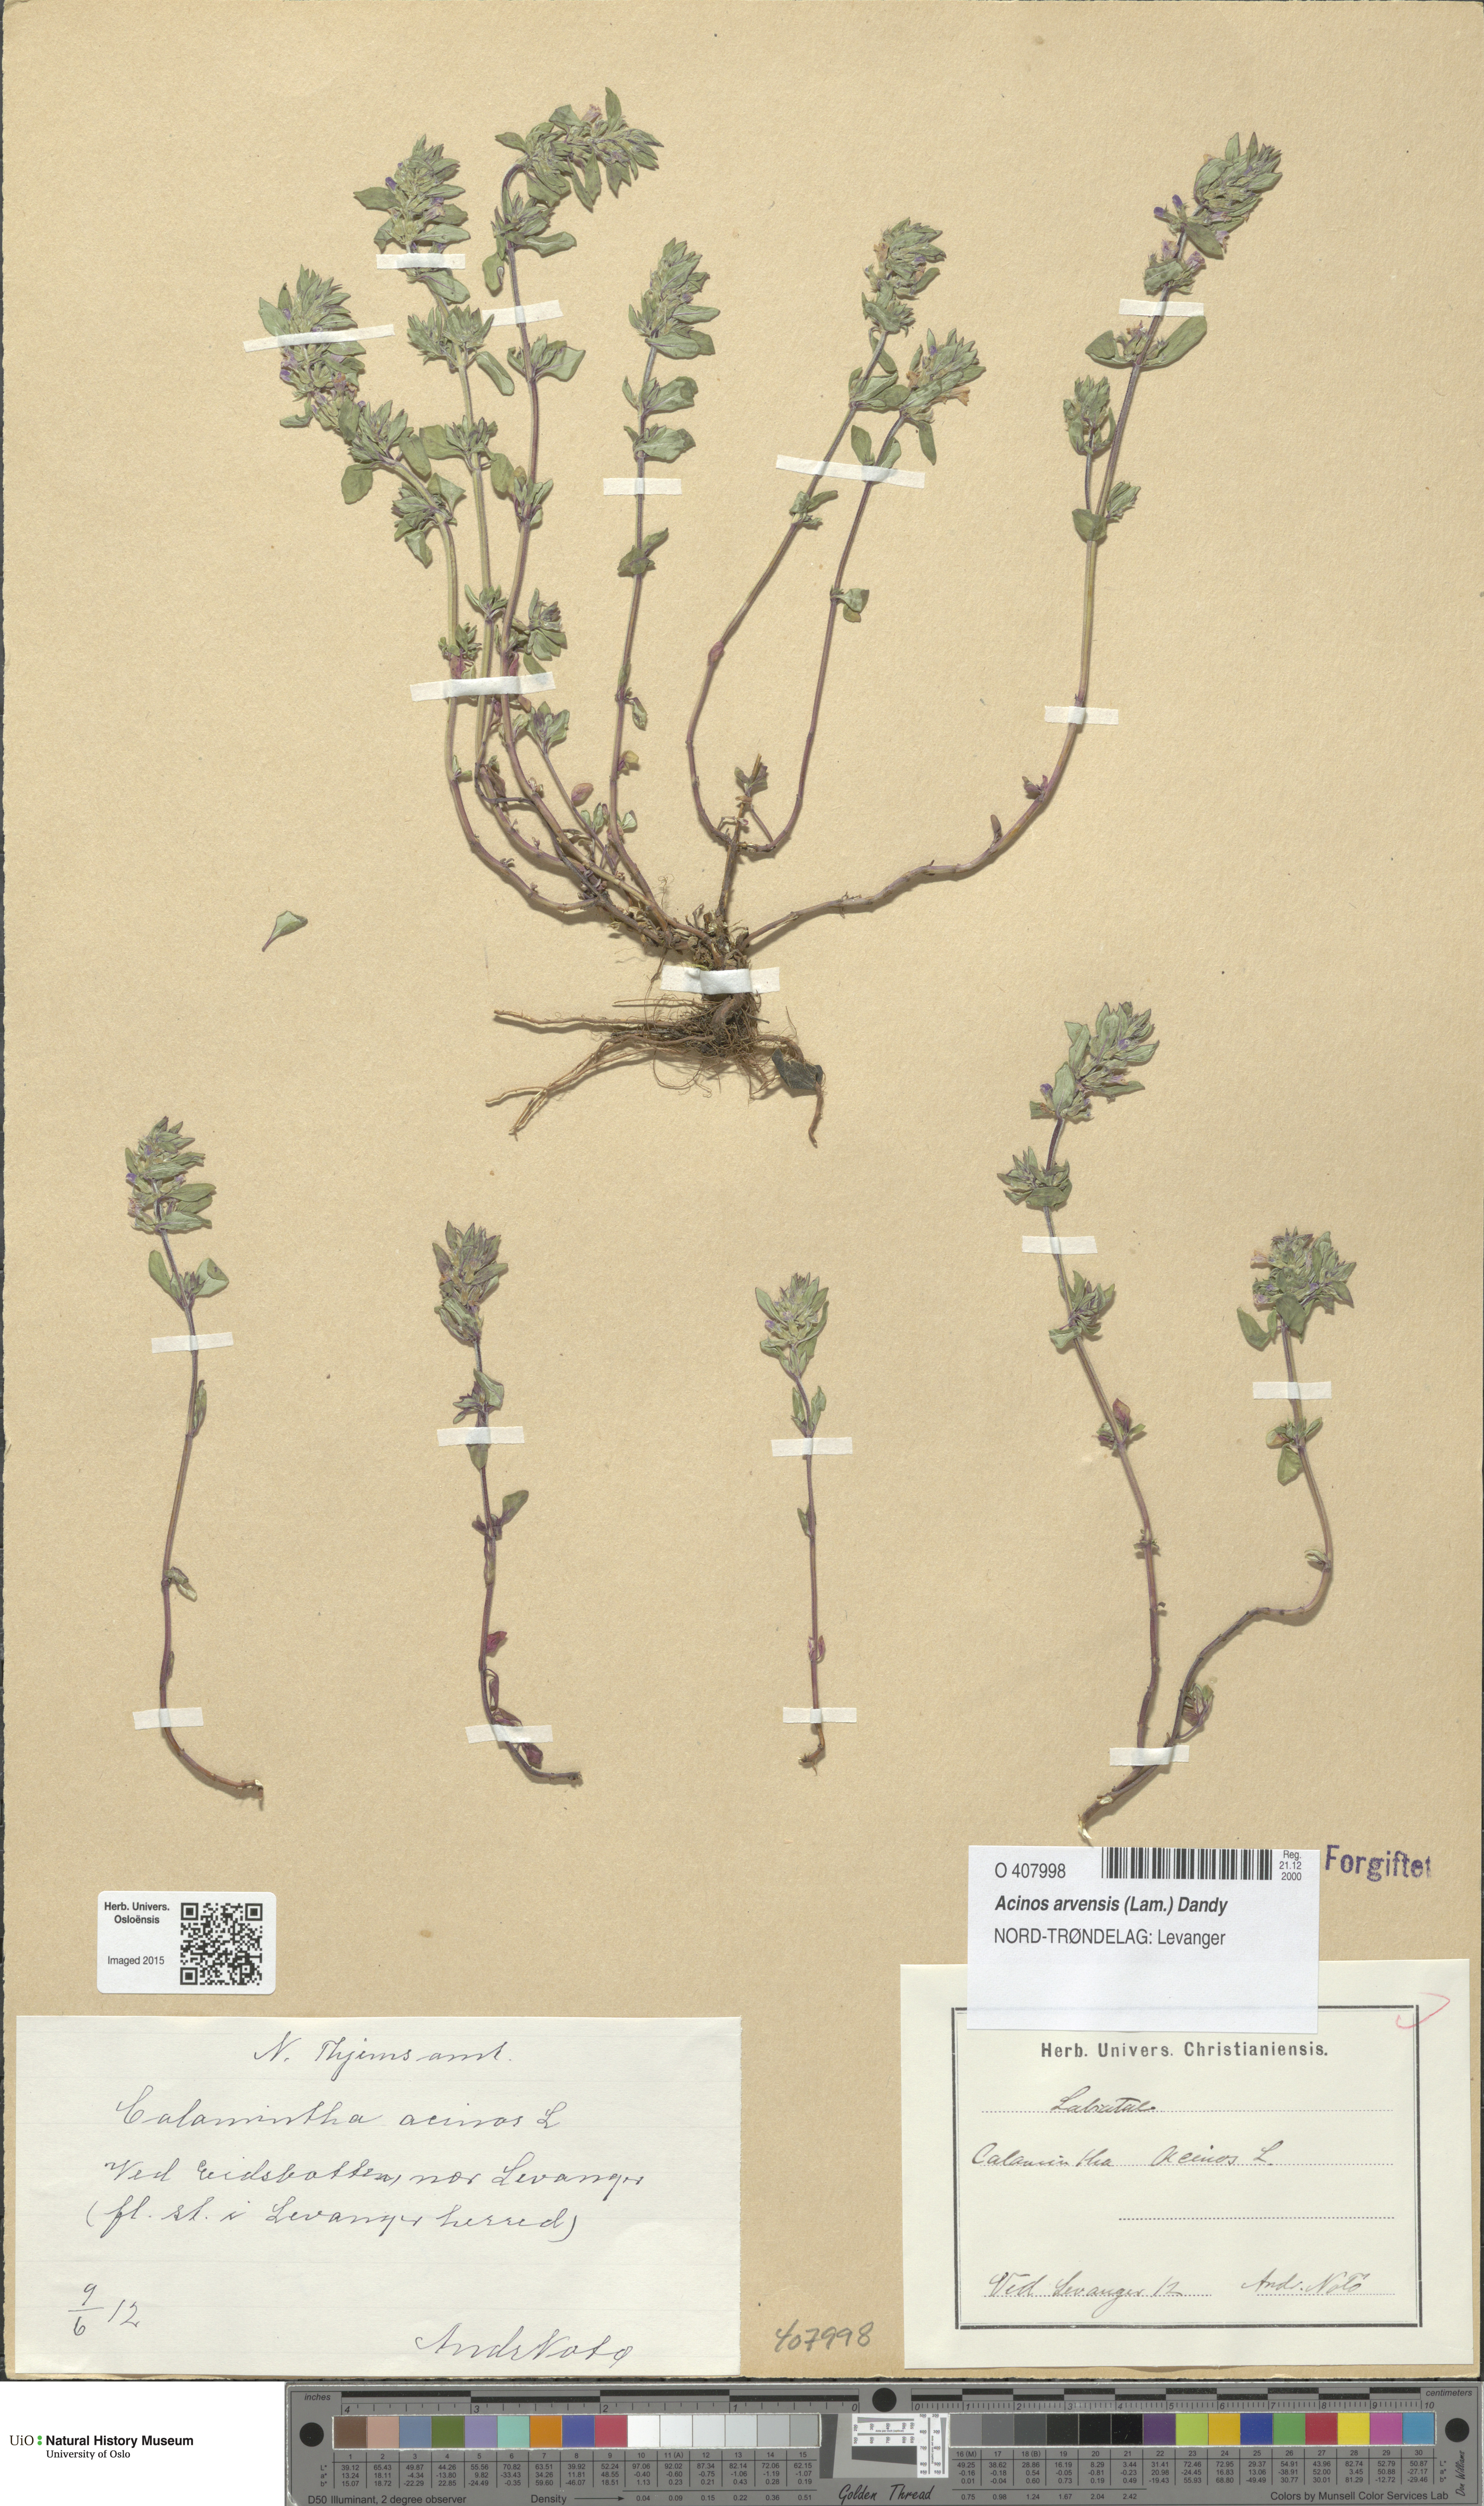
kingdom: Plantae
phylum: Tracheophyta
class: Magnoliopsida
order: Lamiales
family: Lamiaceae
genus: Clinopodium
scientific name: Clinopodium acinos
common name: Basil thyme
